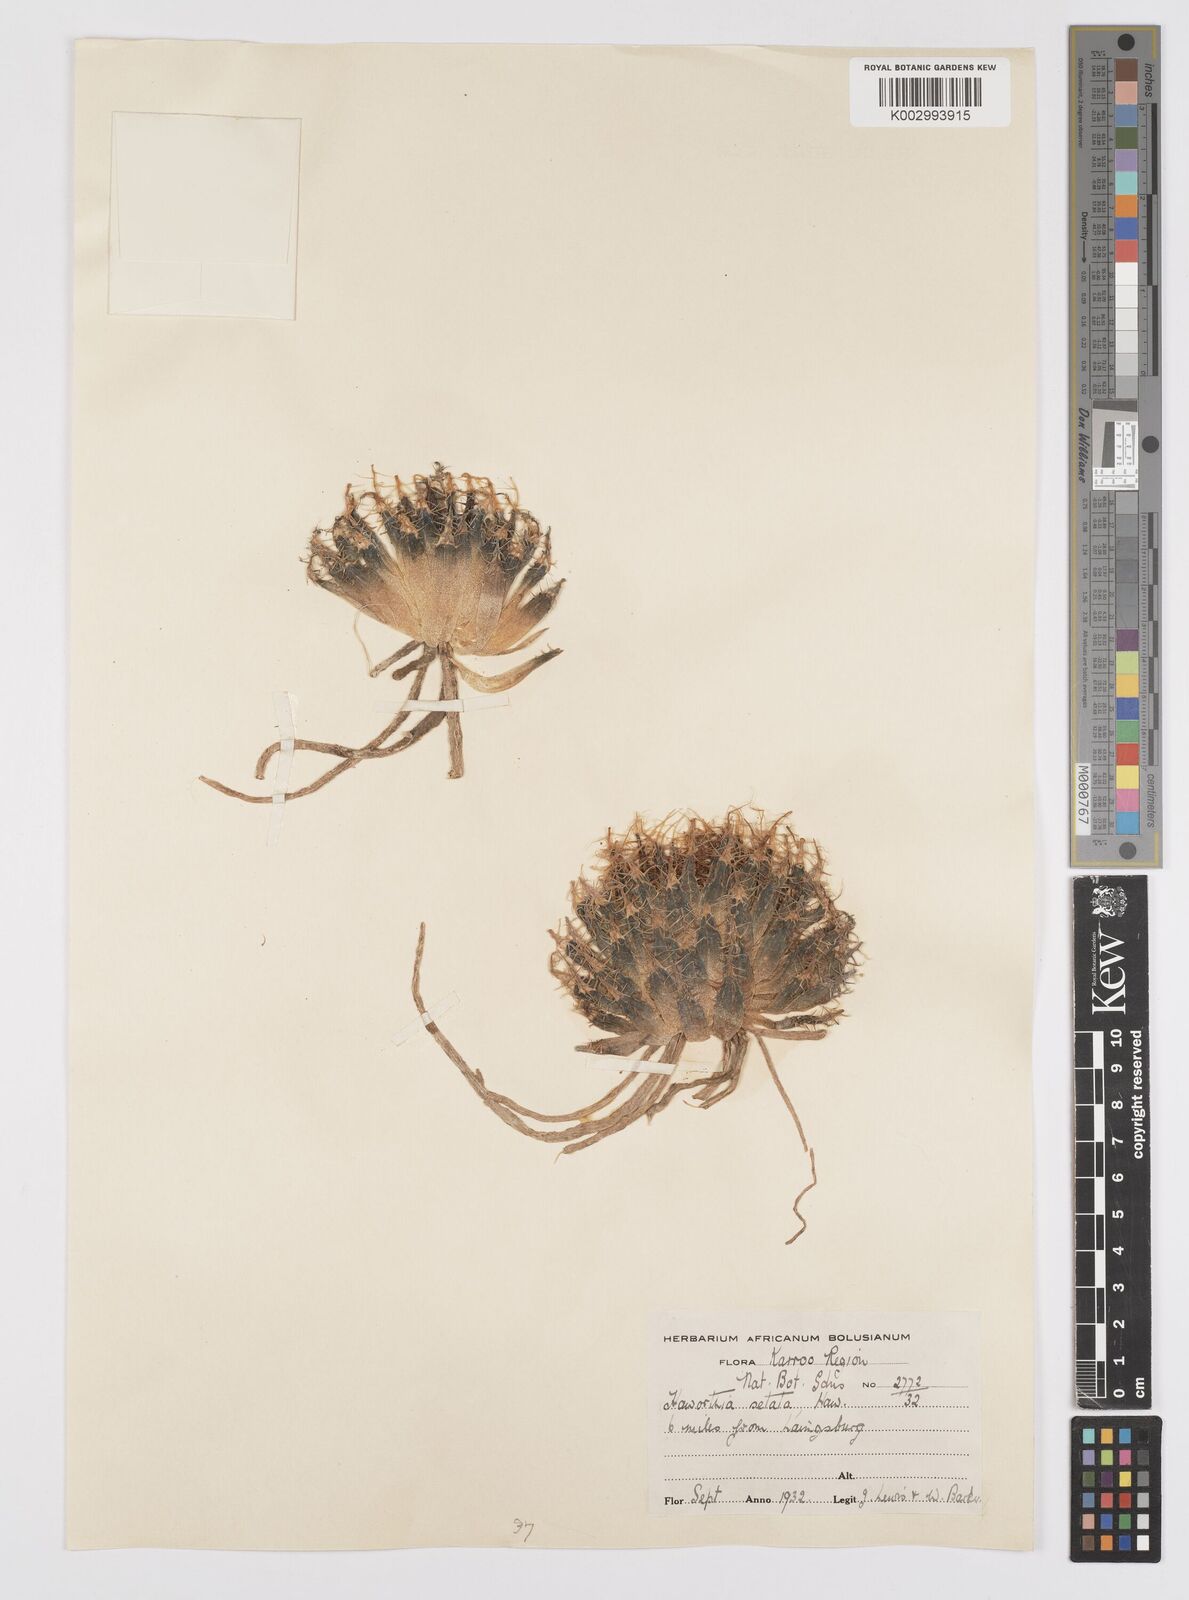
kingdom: Plantae
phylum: Tracheophyta
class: Liliopsida
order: Asparagales
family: Asphodelaceae
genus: Haworthia
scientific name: Haworthia arachnoidea
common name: Cobweb-aloe
